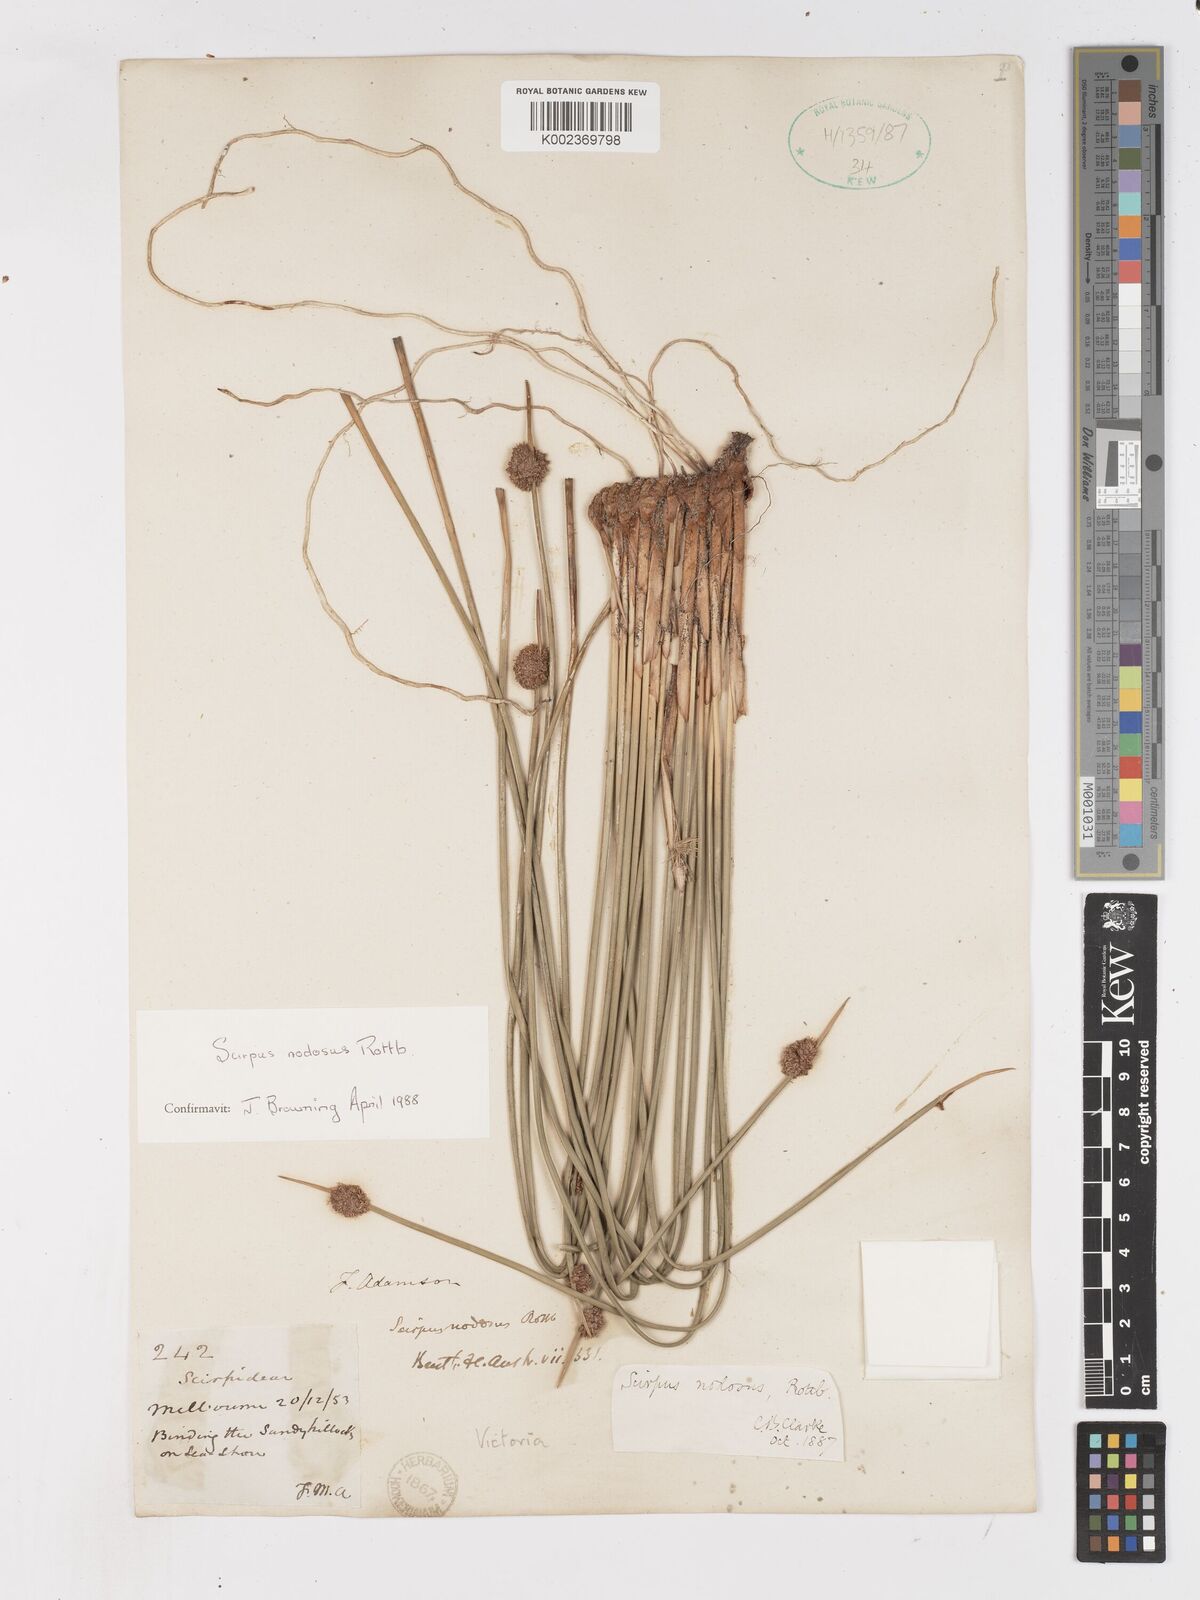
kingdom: Plantae
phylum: Tracheophyta
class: Liliopsida
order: Poales
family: Cyperaceae
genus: Ficinia
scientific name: Ficinia nodosa
